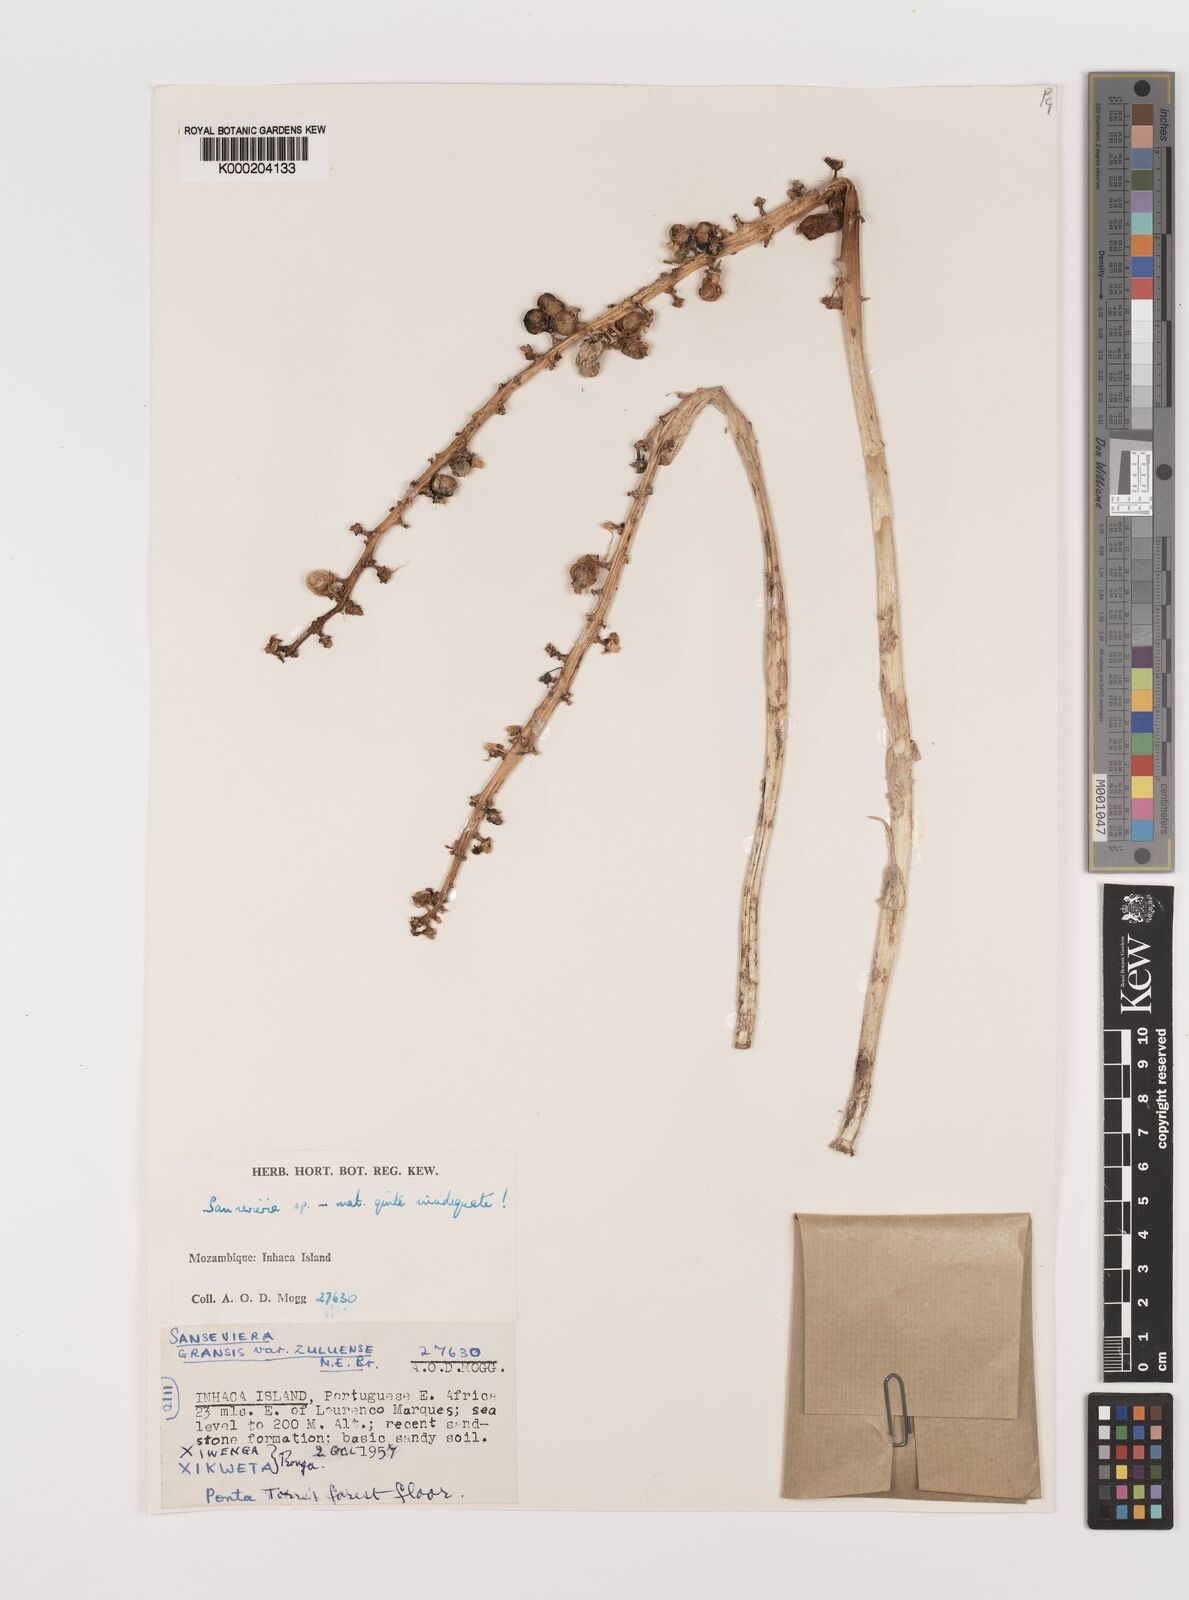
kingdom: Plantae
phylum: Tracheophyta
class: Liliopsida
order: Asparagales
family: Asparagaceae
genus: Dracaena
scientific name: Dracaena
